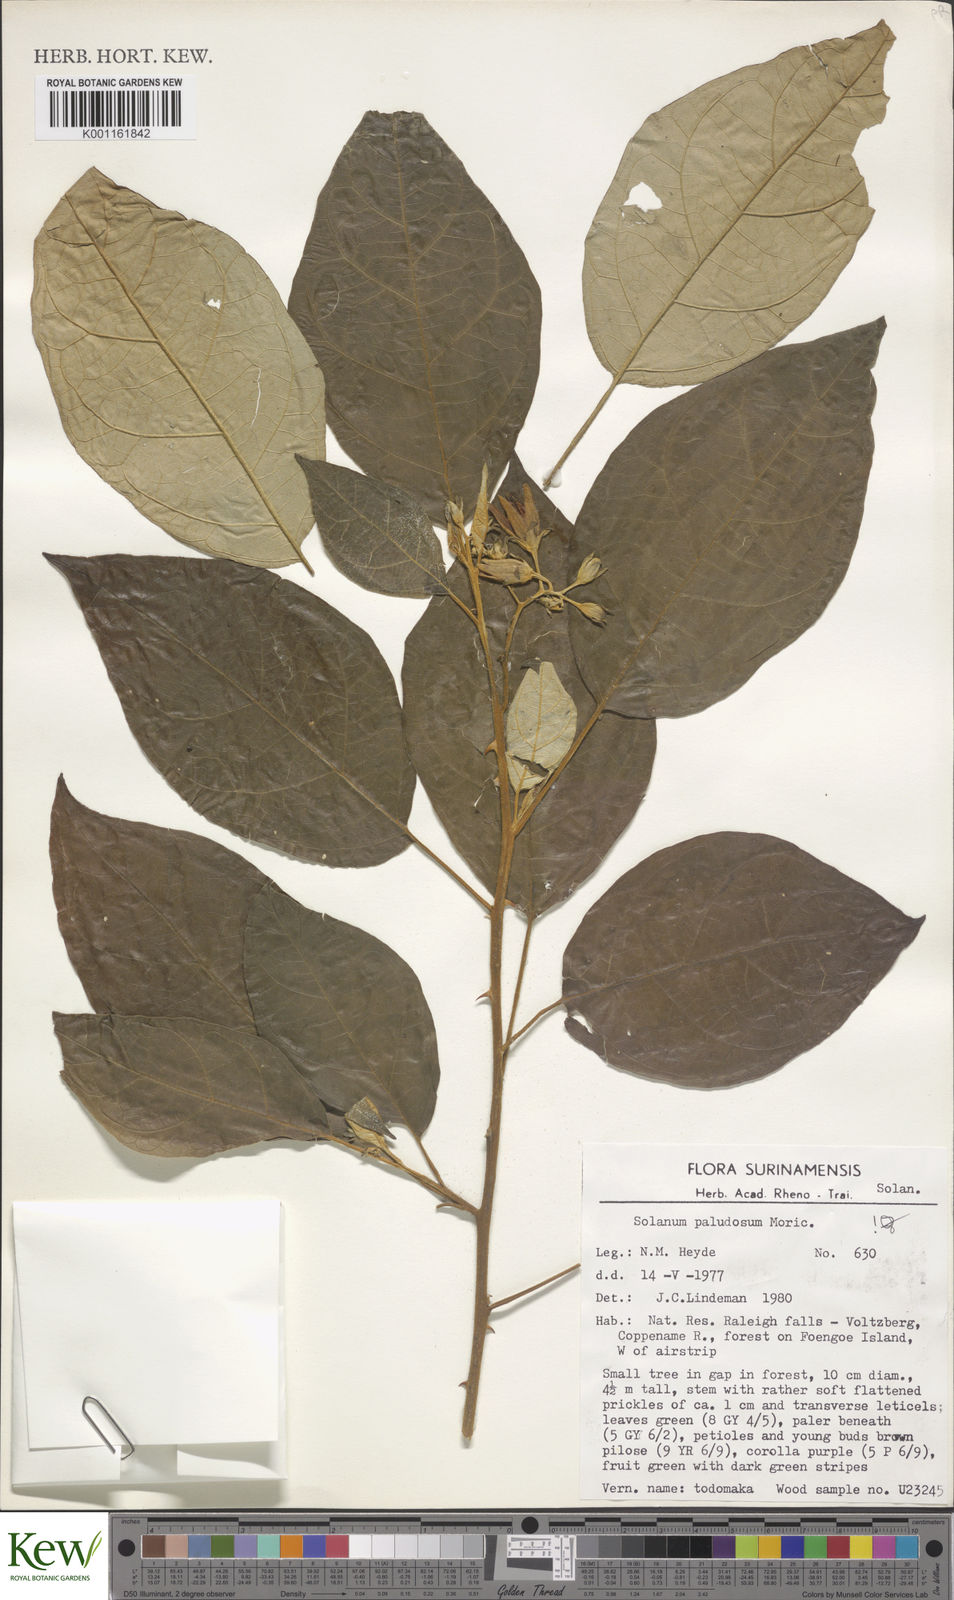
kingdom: Plantae
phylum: Tracheophyta
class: Magnoliopsida
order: Solanales
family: Solanaceae
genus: Solanum
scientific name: Solanum paludosum
